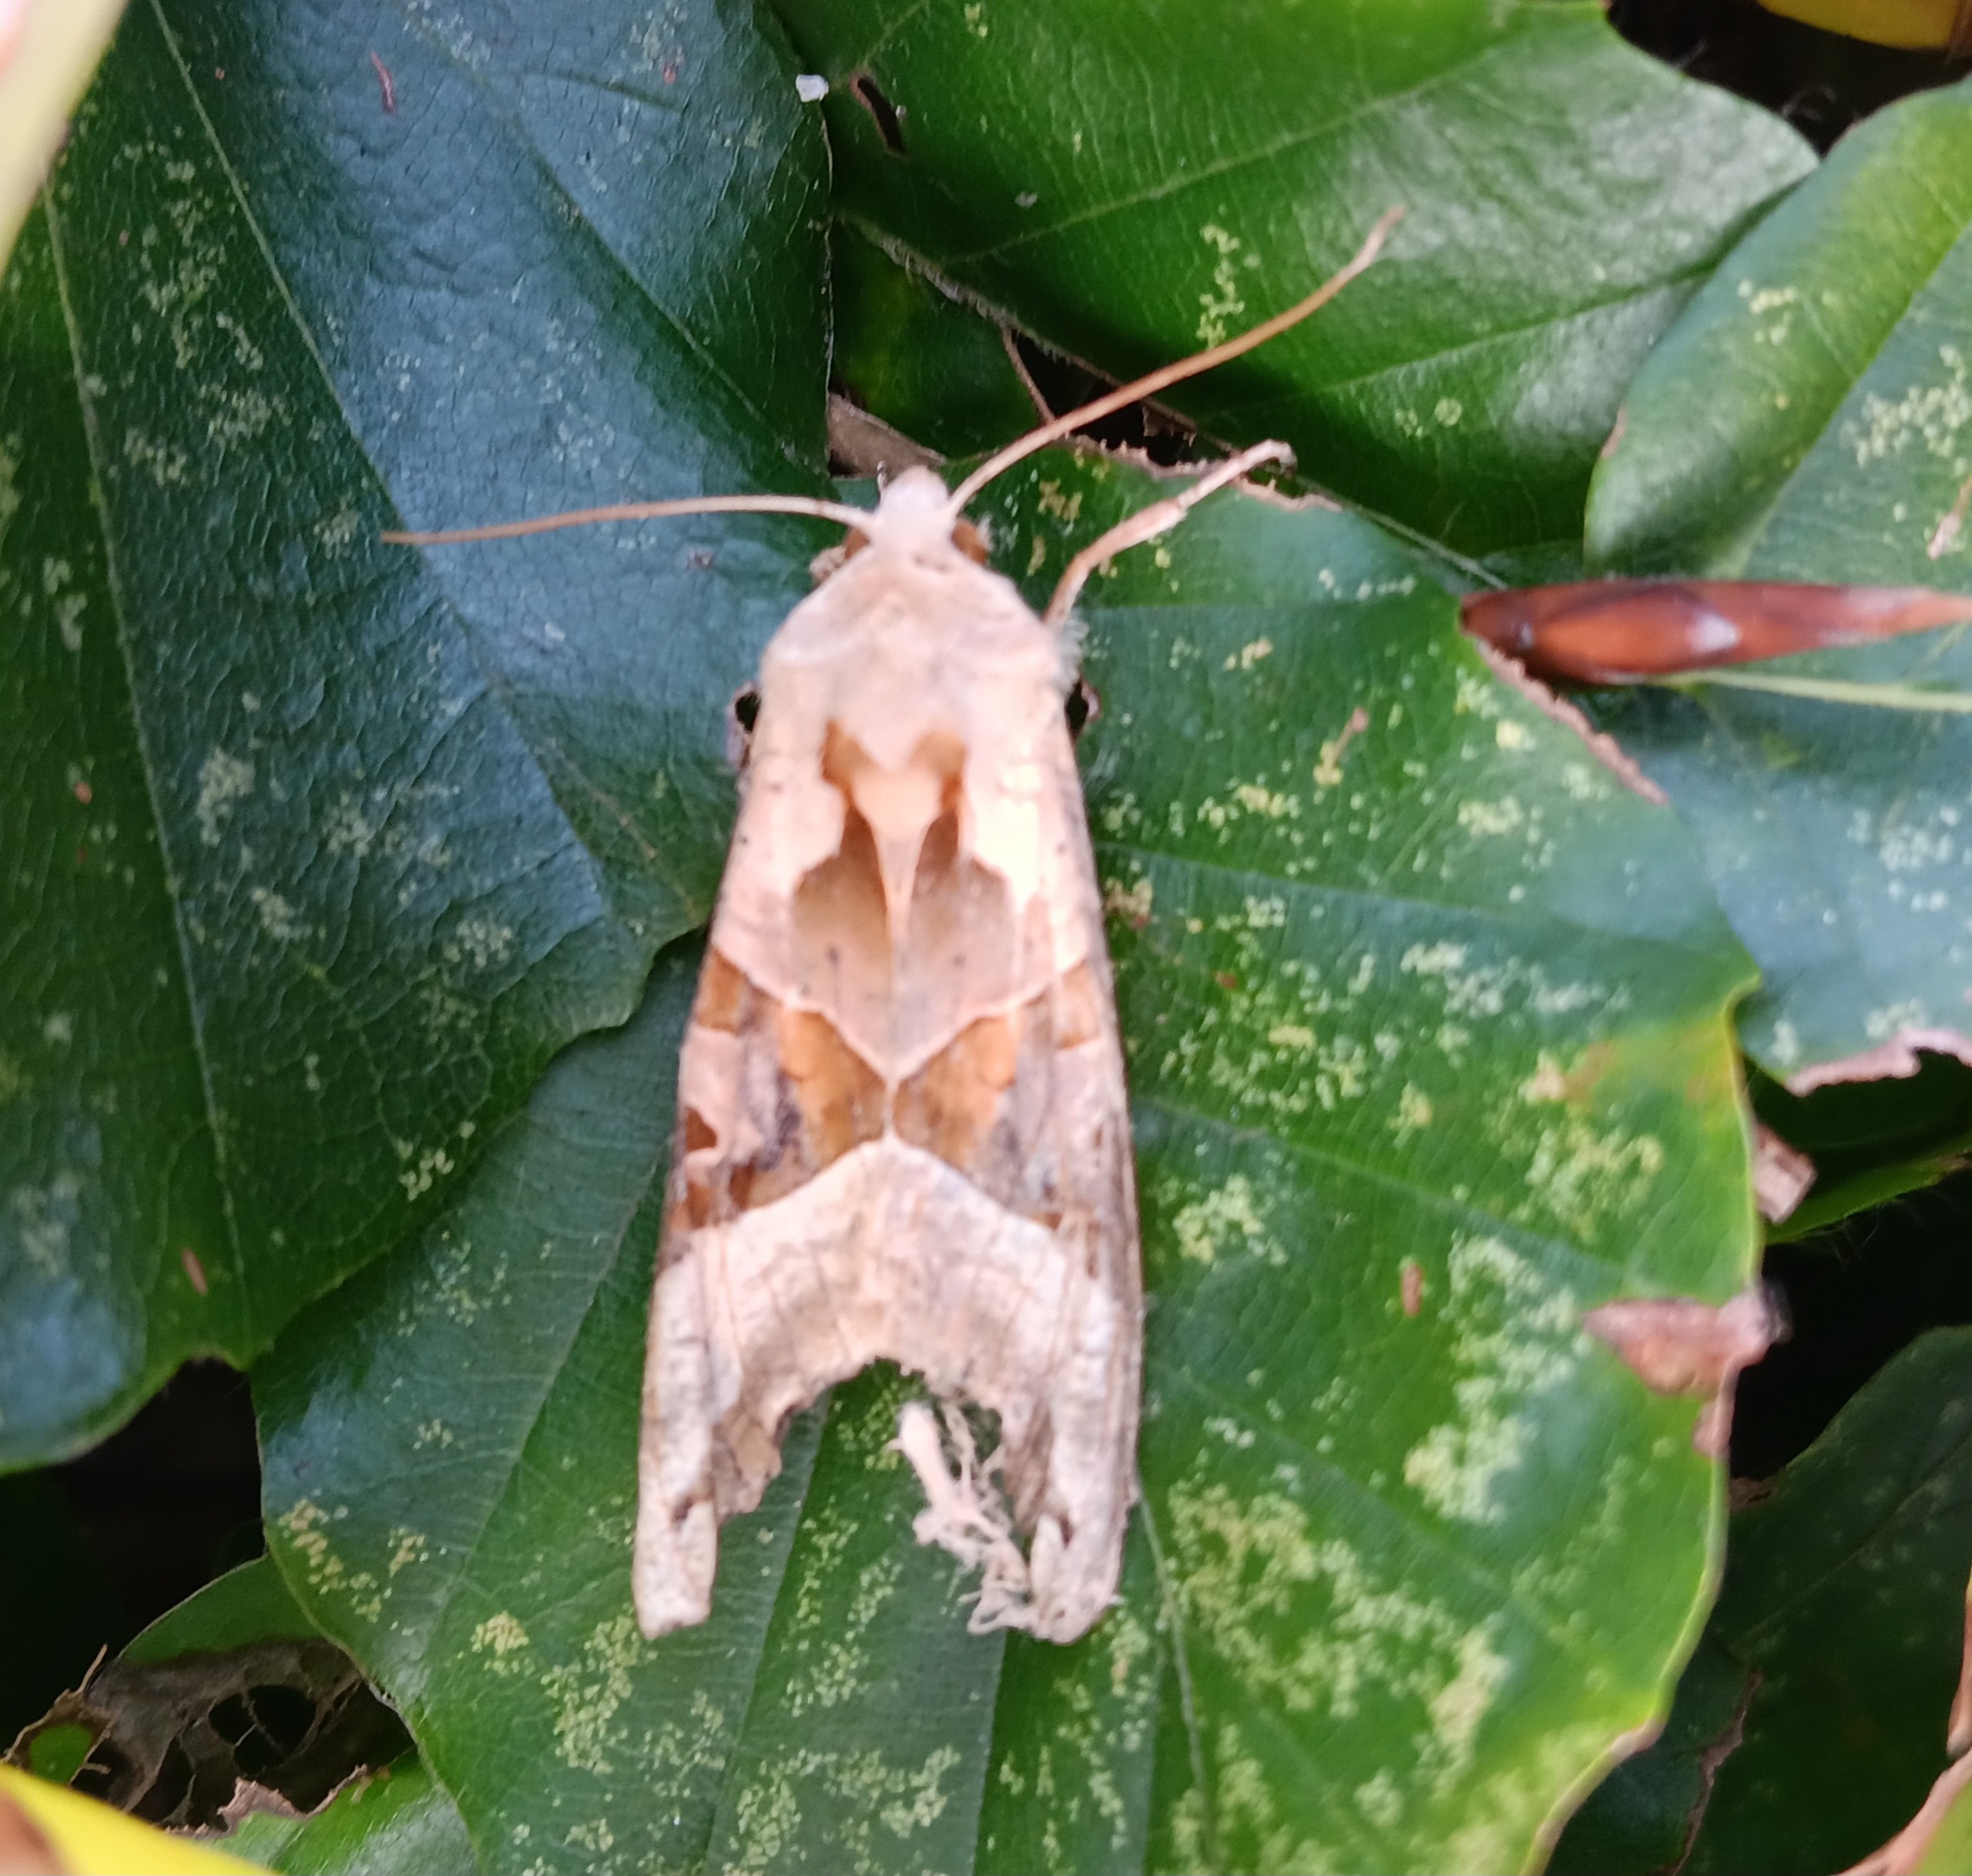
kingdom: Animalia
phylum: Arthropoda
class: Insecta
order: Lepidoptera
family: Noctuidae
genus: Phlogophora
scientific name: Phlogophora meticulosa
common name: Agatugle
